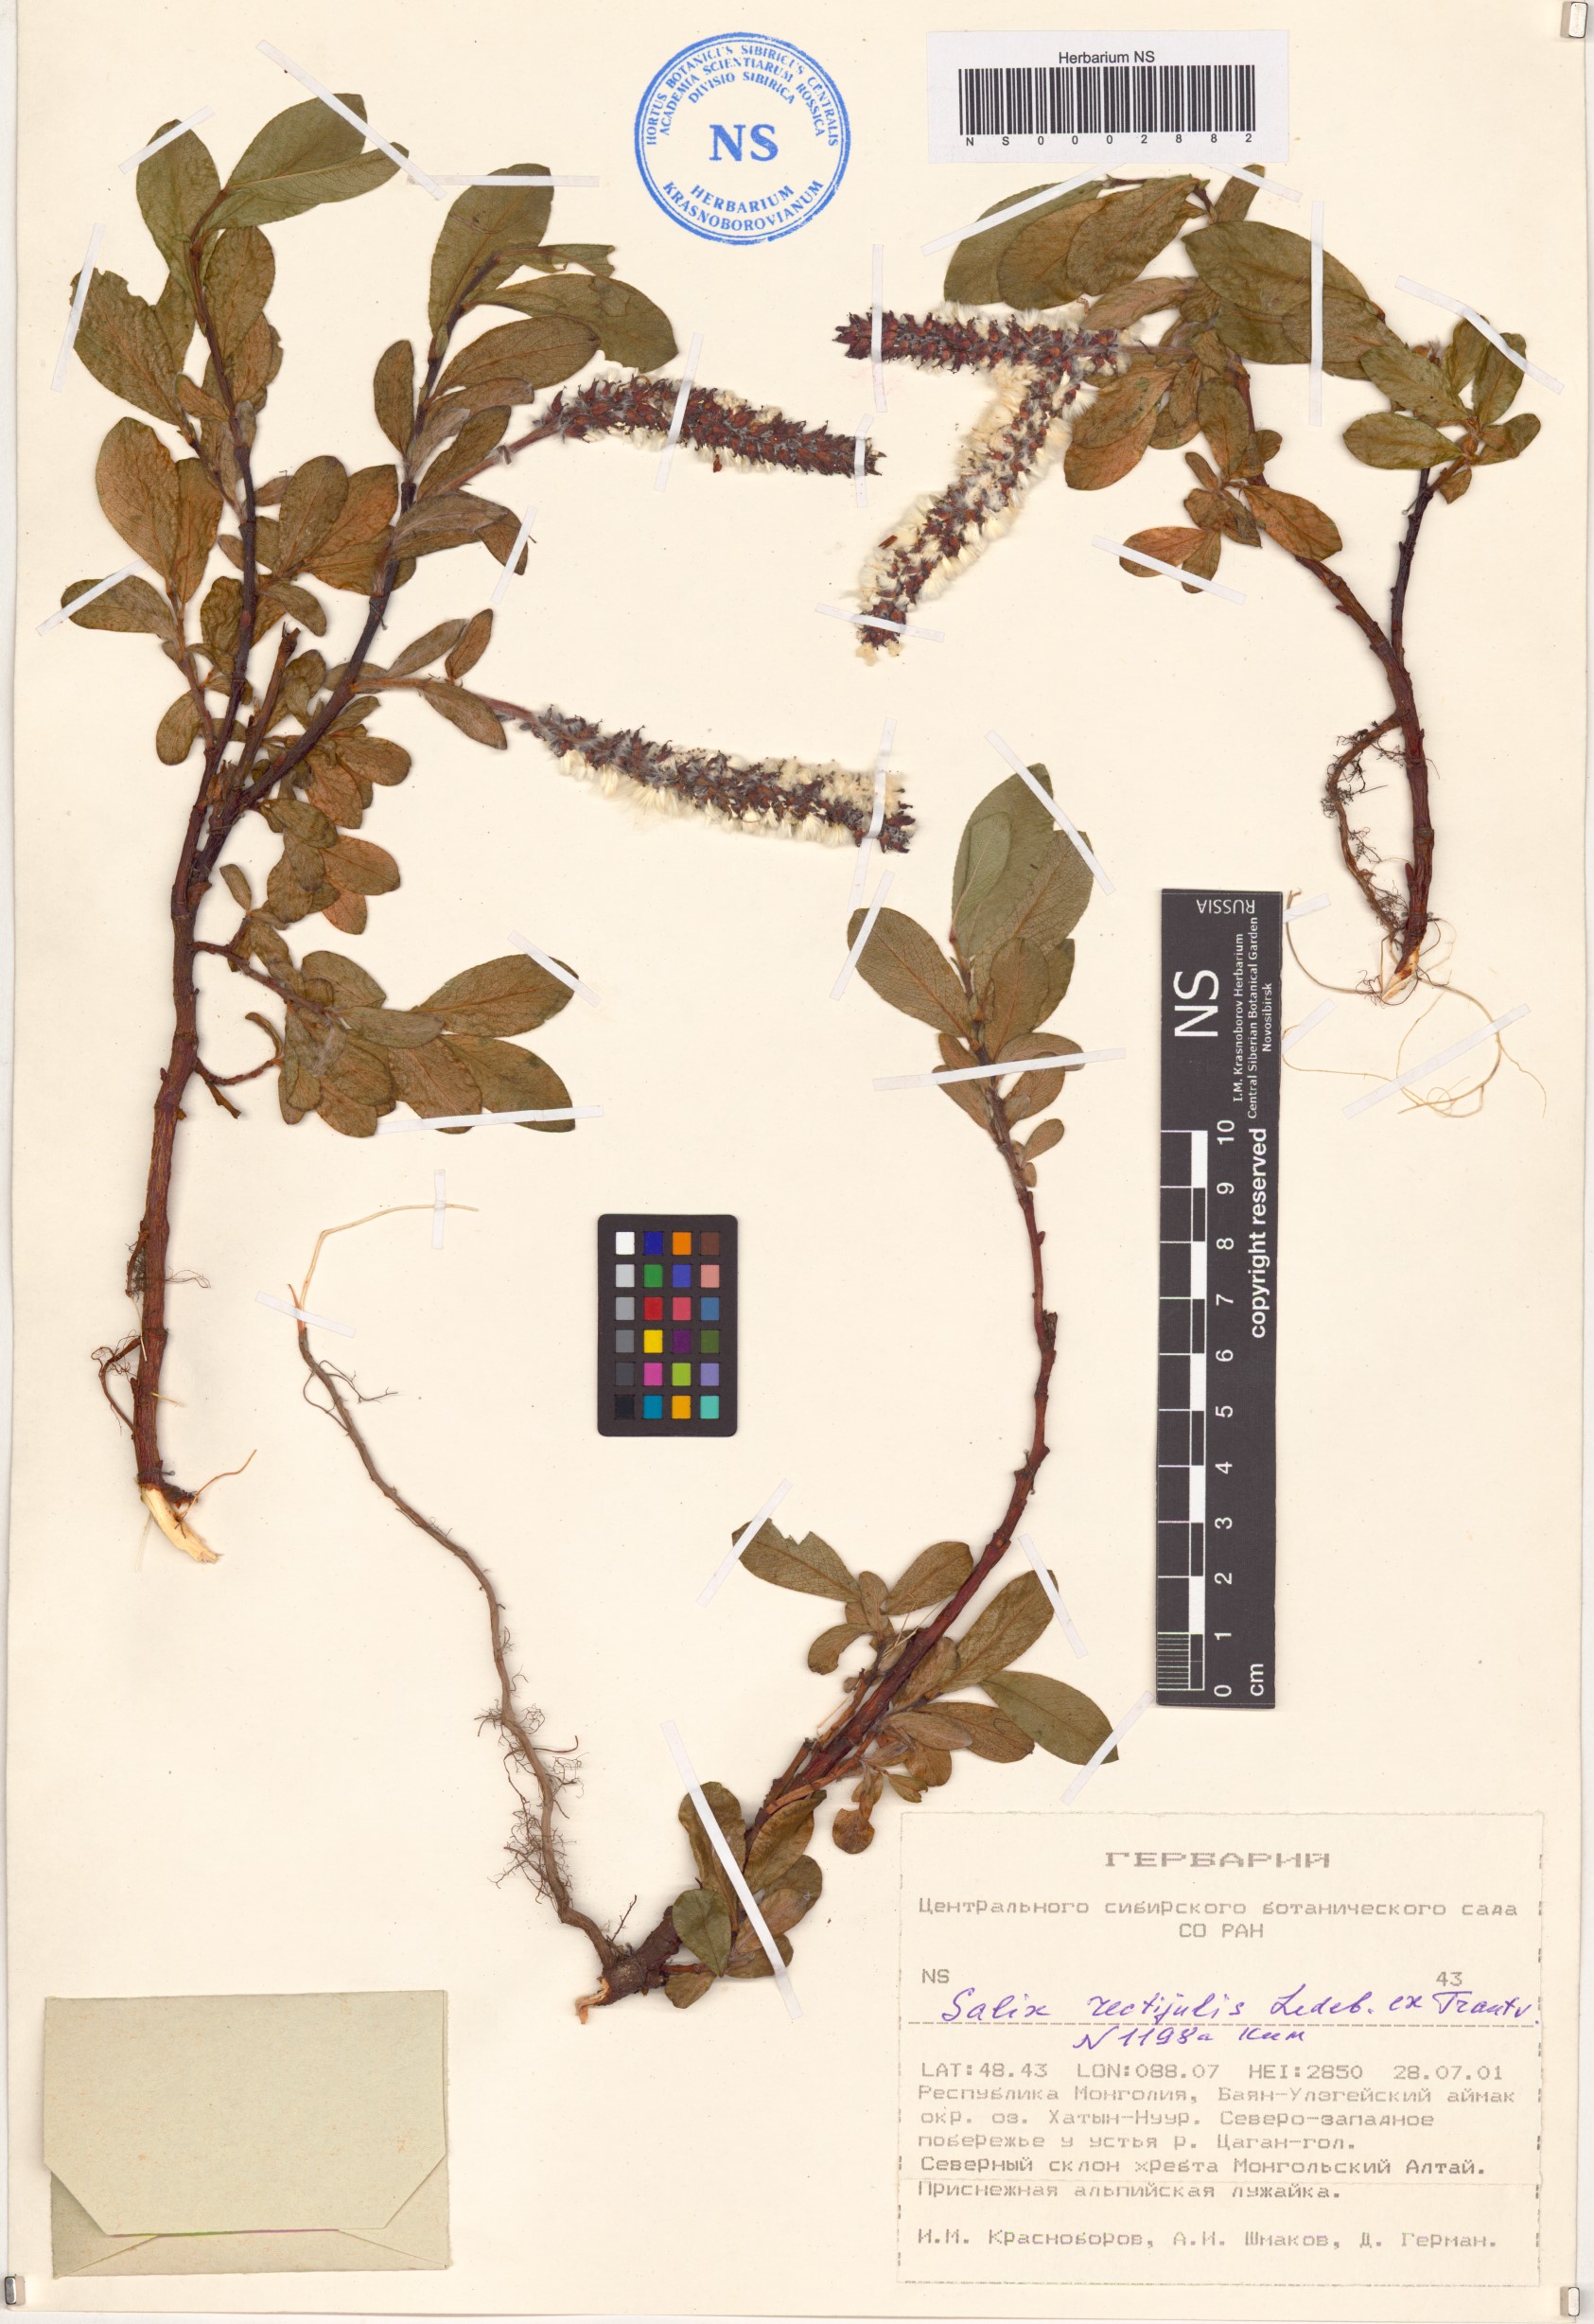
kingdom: Plantae
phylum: Tracheophyta
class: Magnoliopsida
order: Malpighiales
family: Salicaceae
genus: Salix
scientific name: Salix rectijulis
